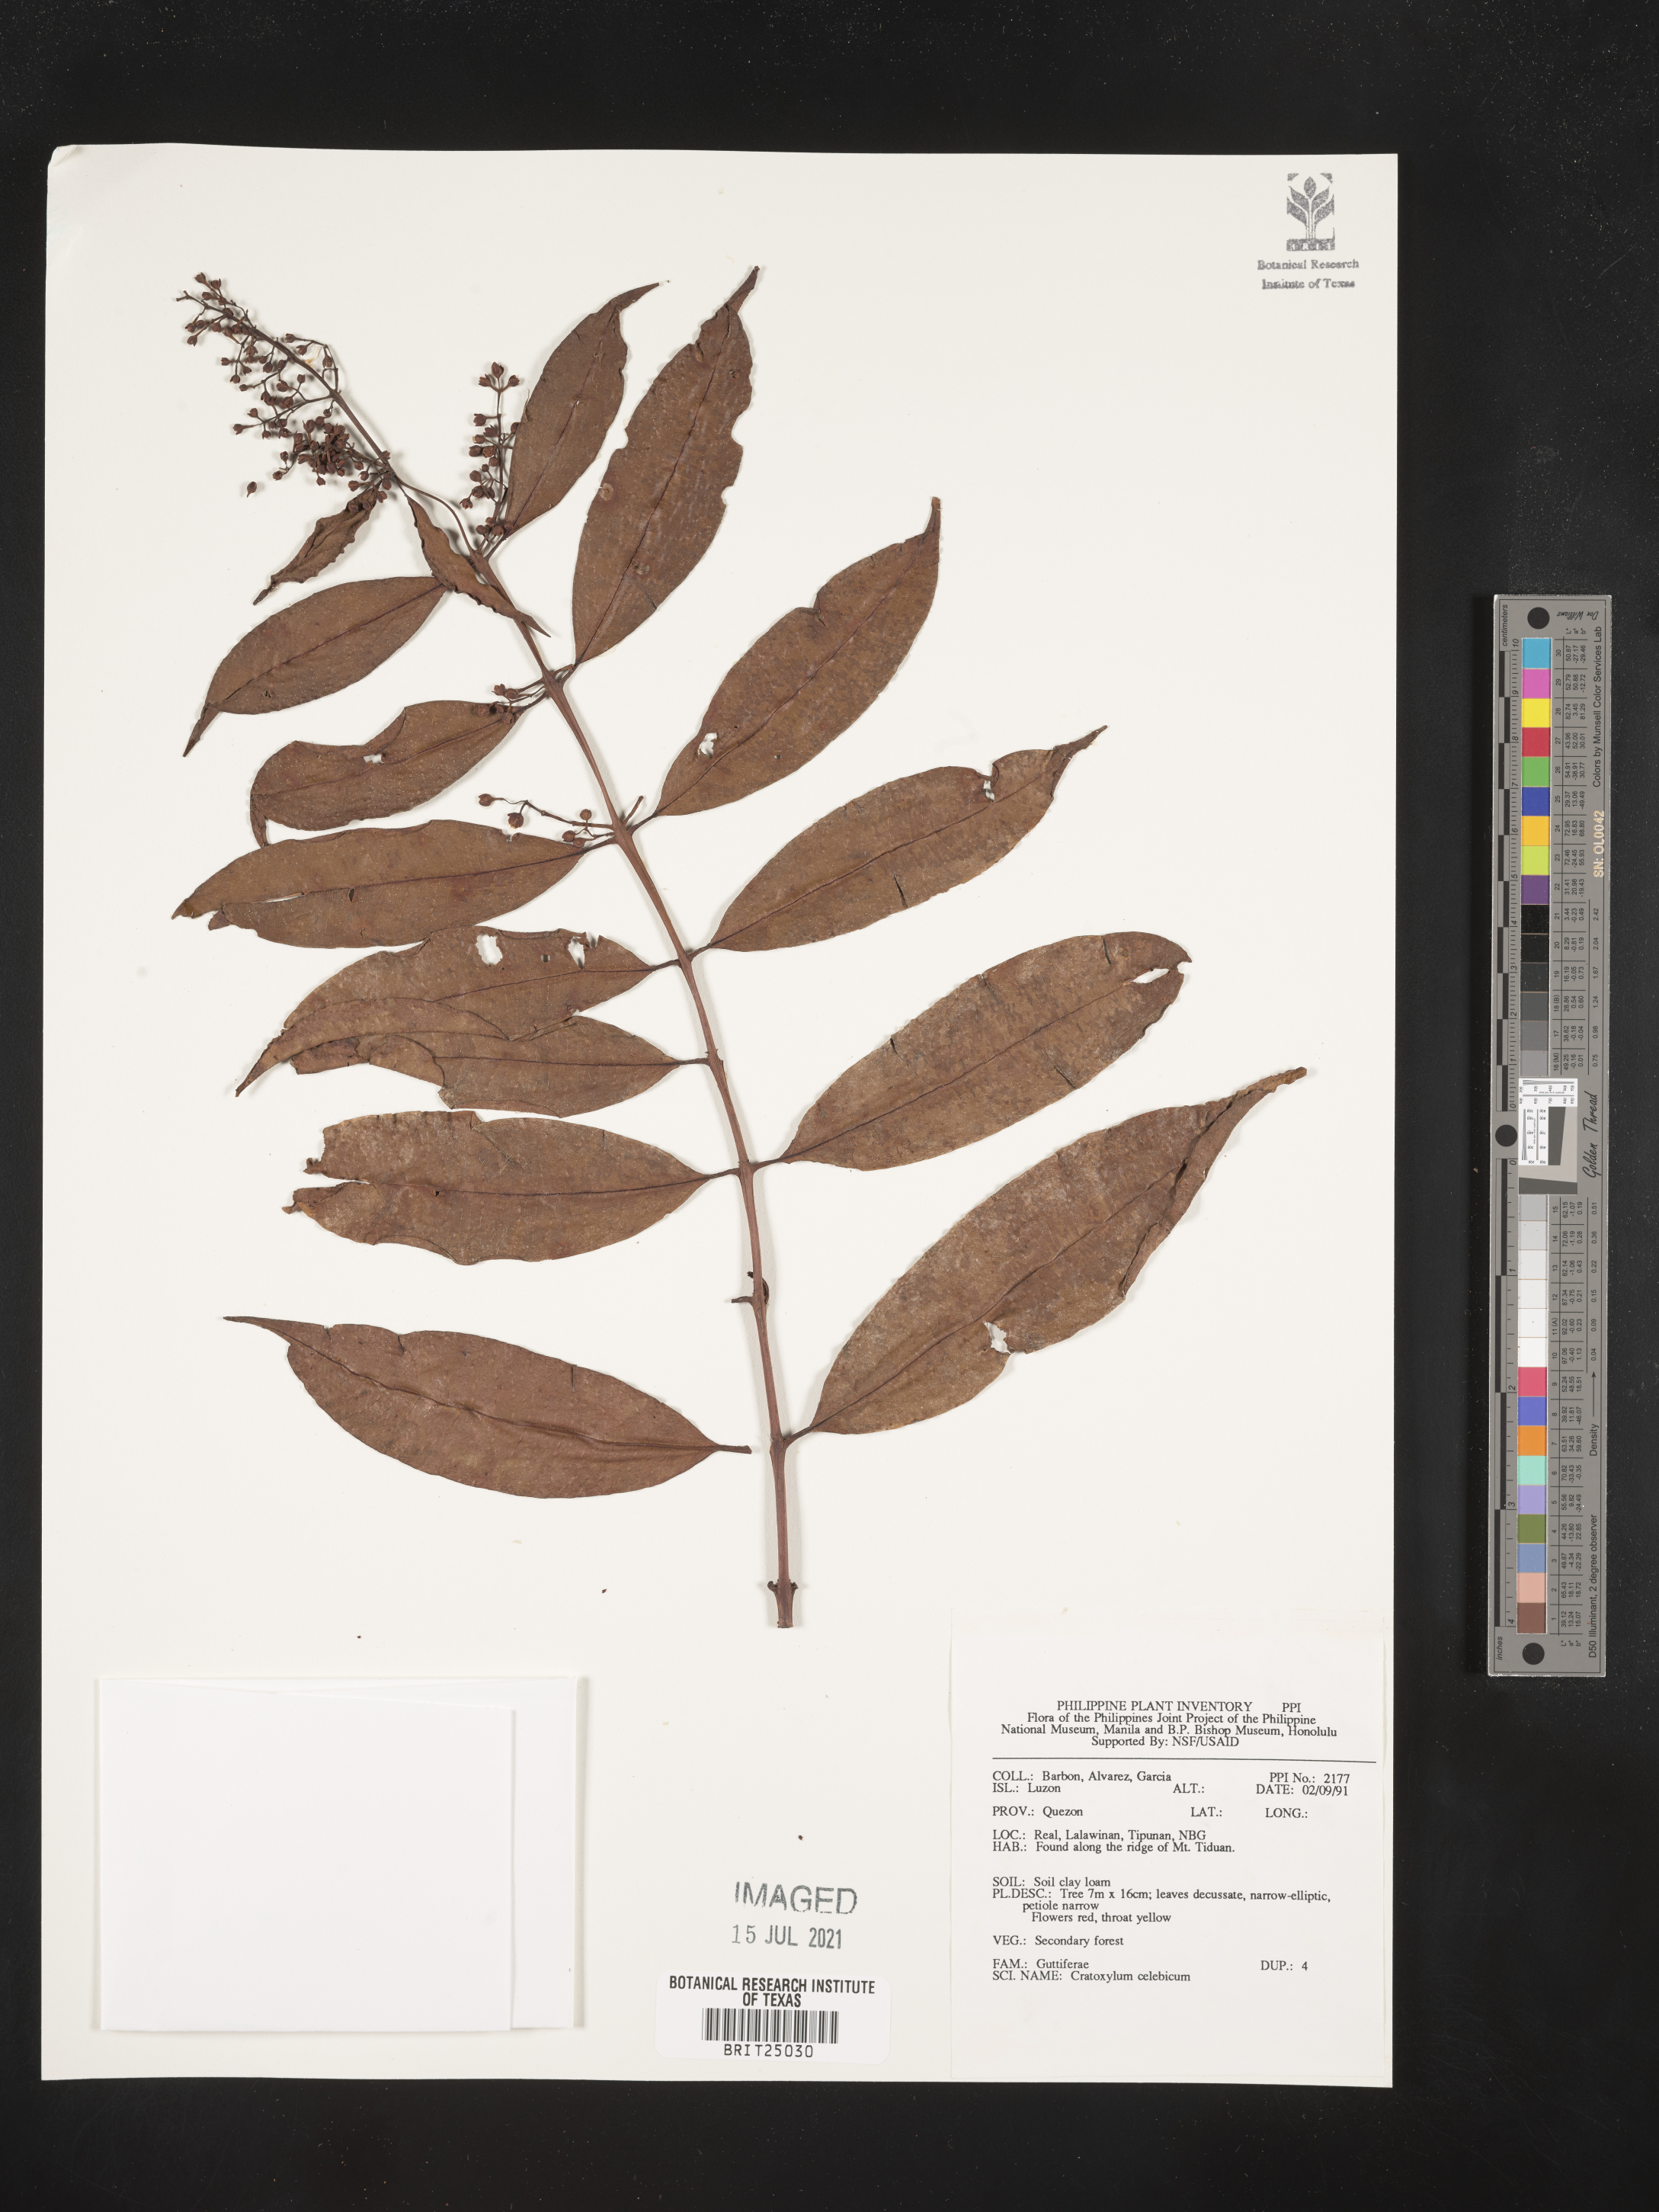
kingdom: Plantae
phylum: Tracheophyta
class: Magnoliopsida
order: Malpighiales
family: Hypericaceae
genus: Cratoxylum
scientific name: Cratoxylum sumatranum
